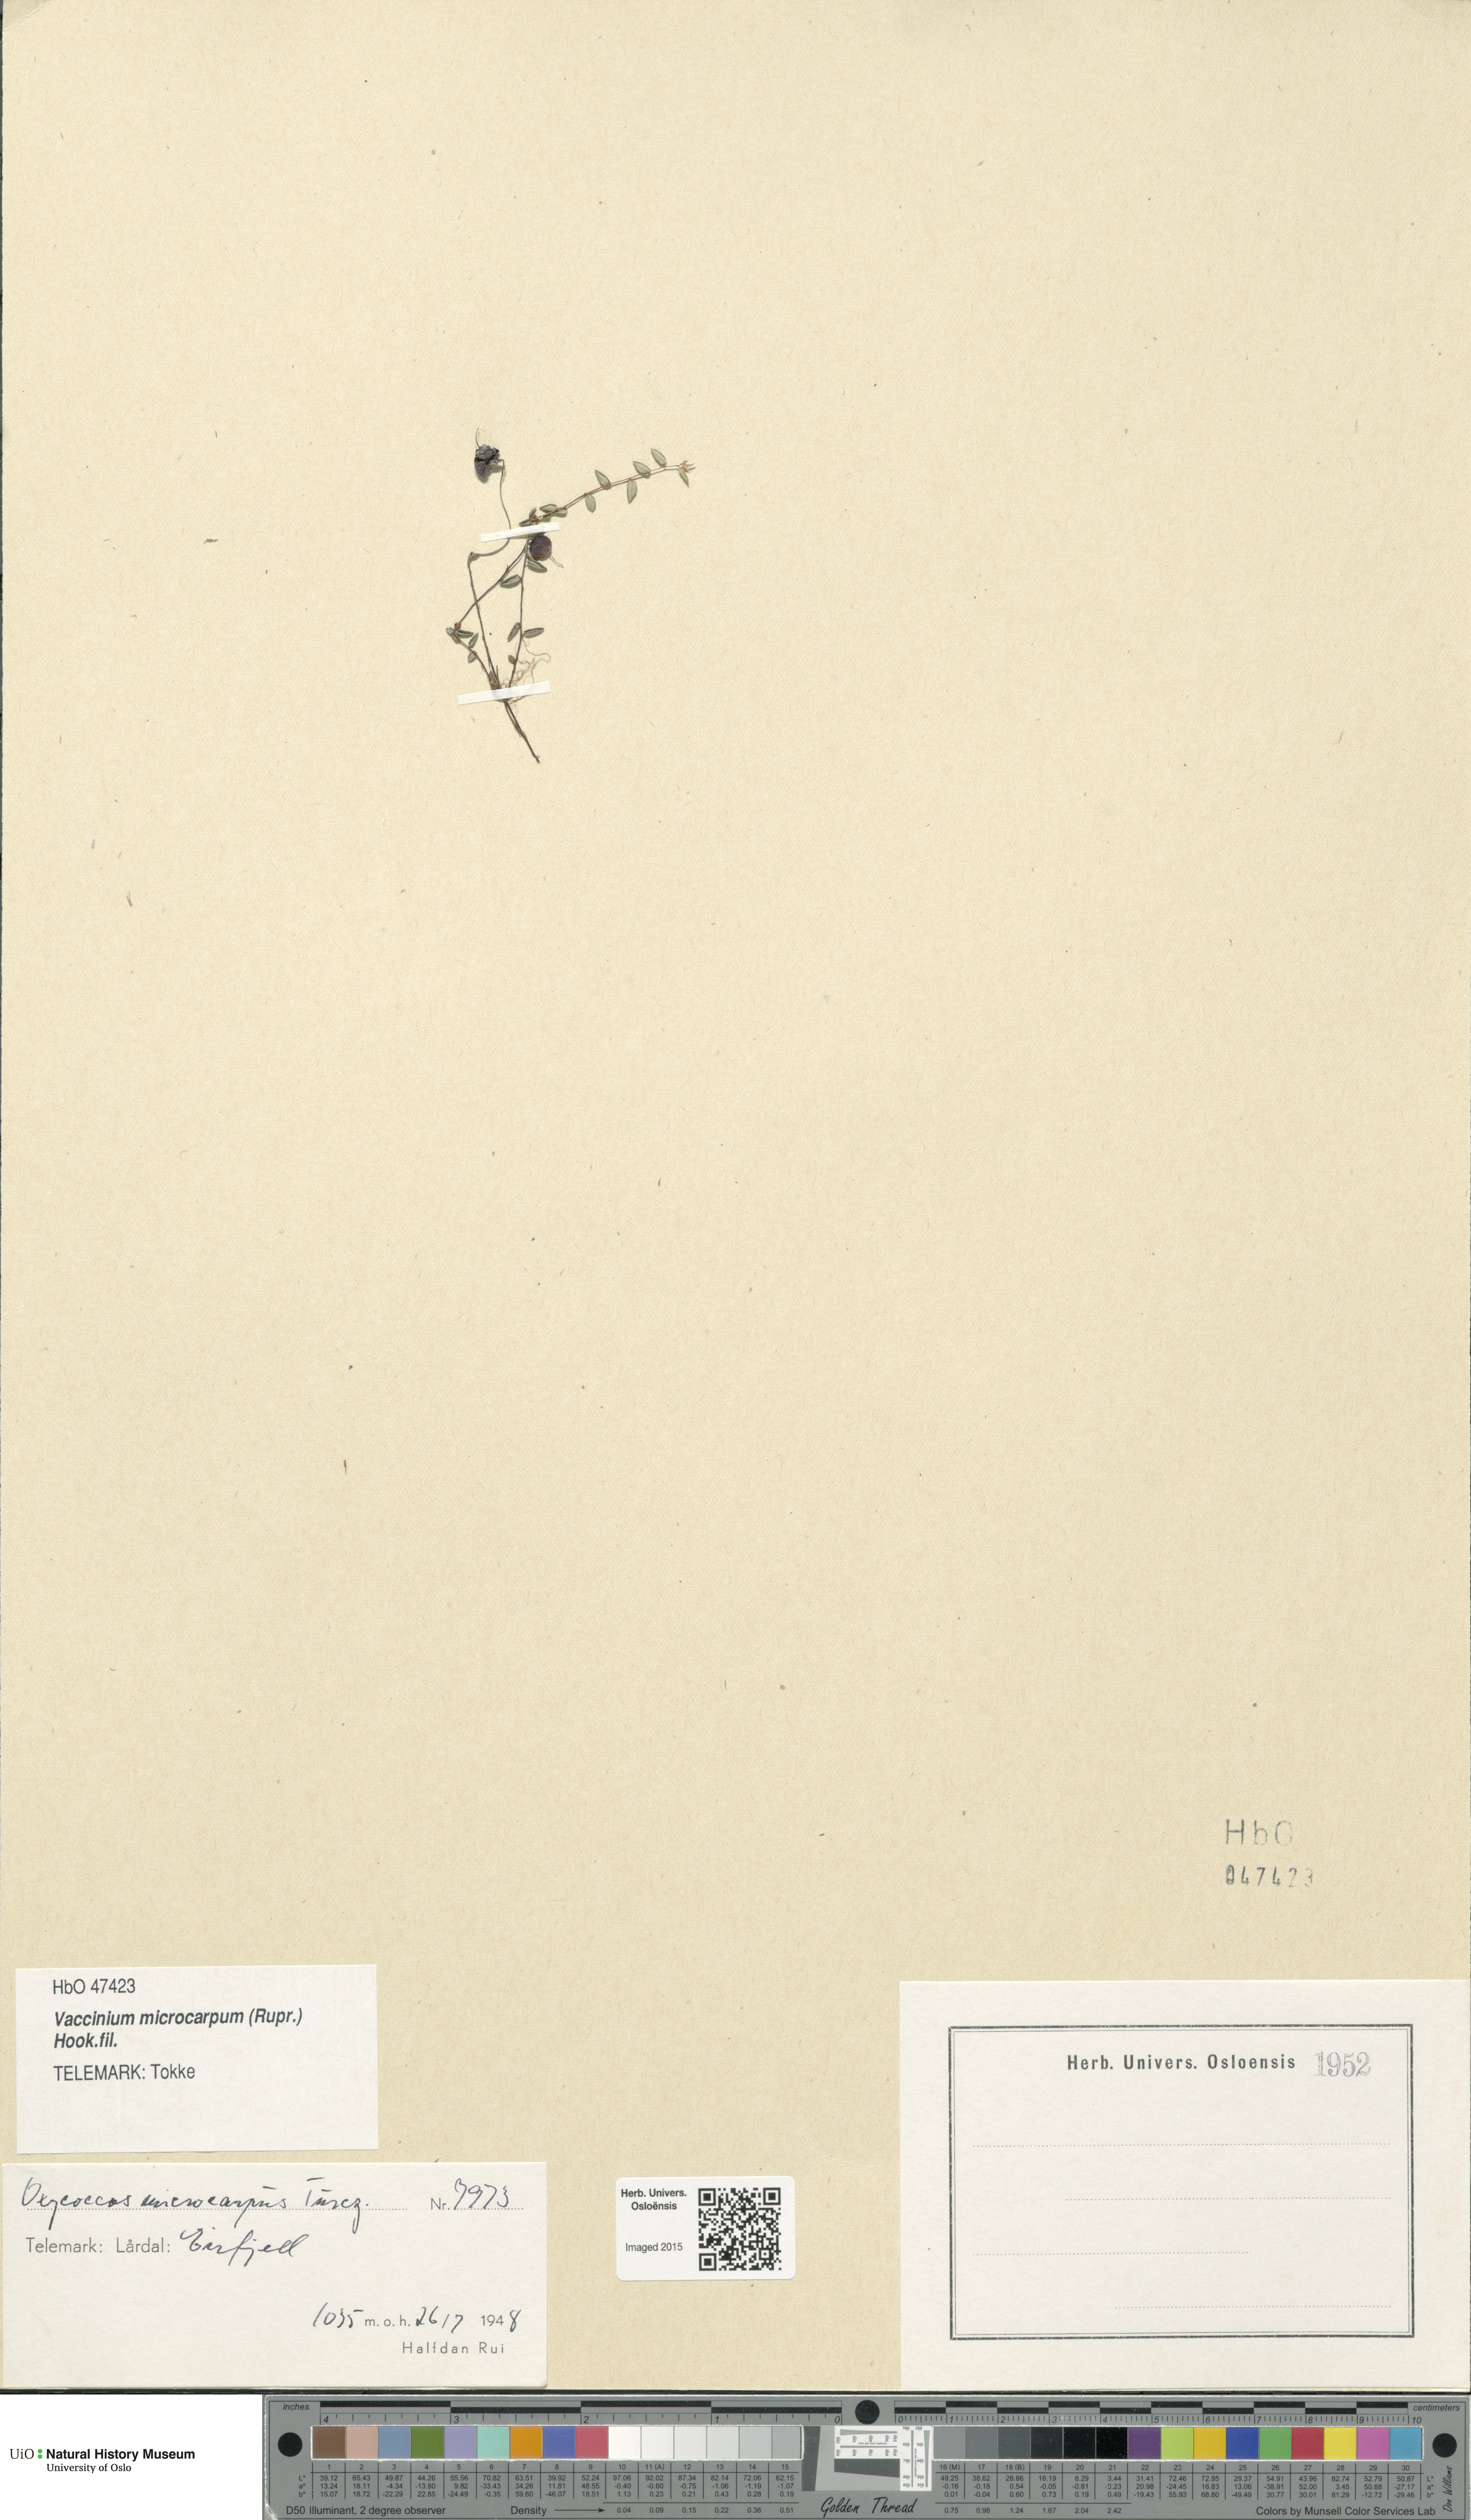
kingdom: Plantae
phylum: Tracheophyta
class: Magnoliopsida
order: Ericales
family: Ericaceae
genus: Vaccinium
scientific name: Vaccinium microcarpum
